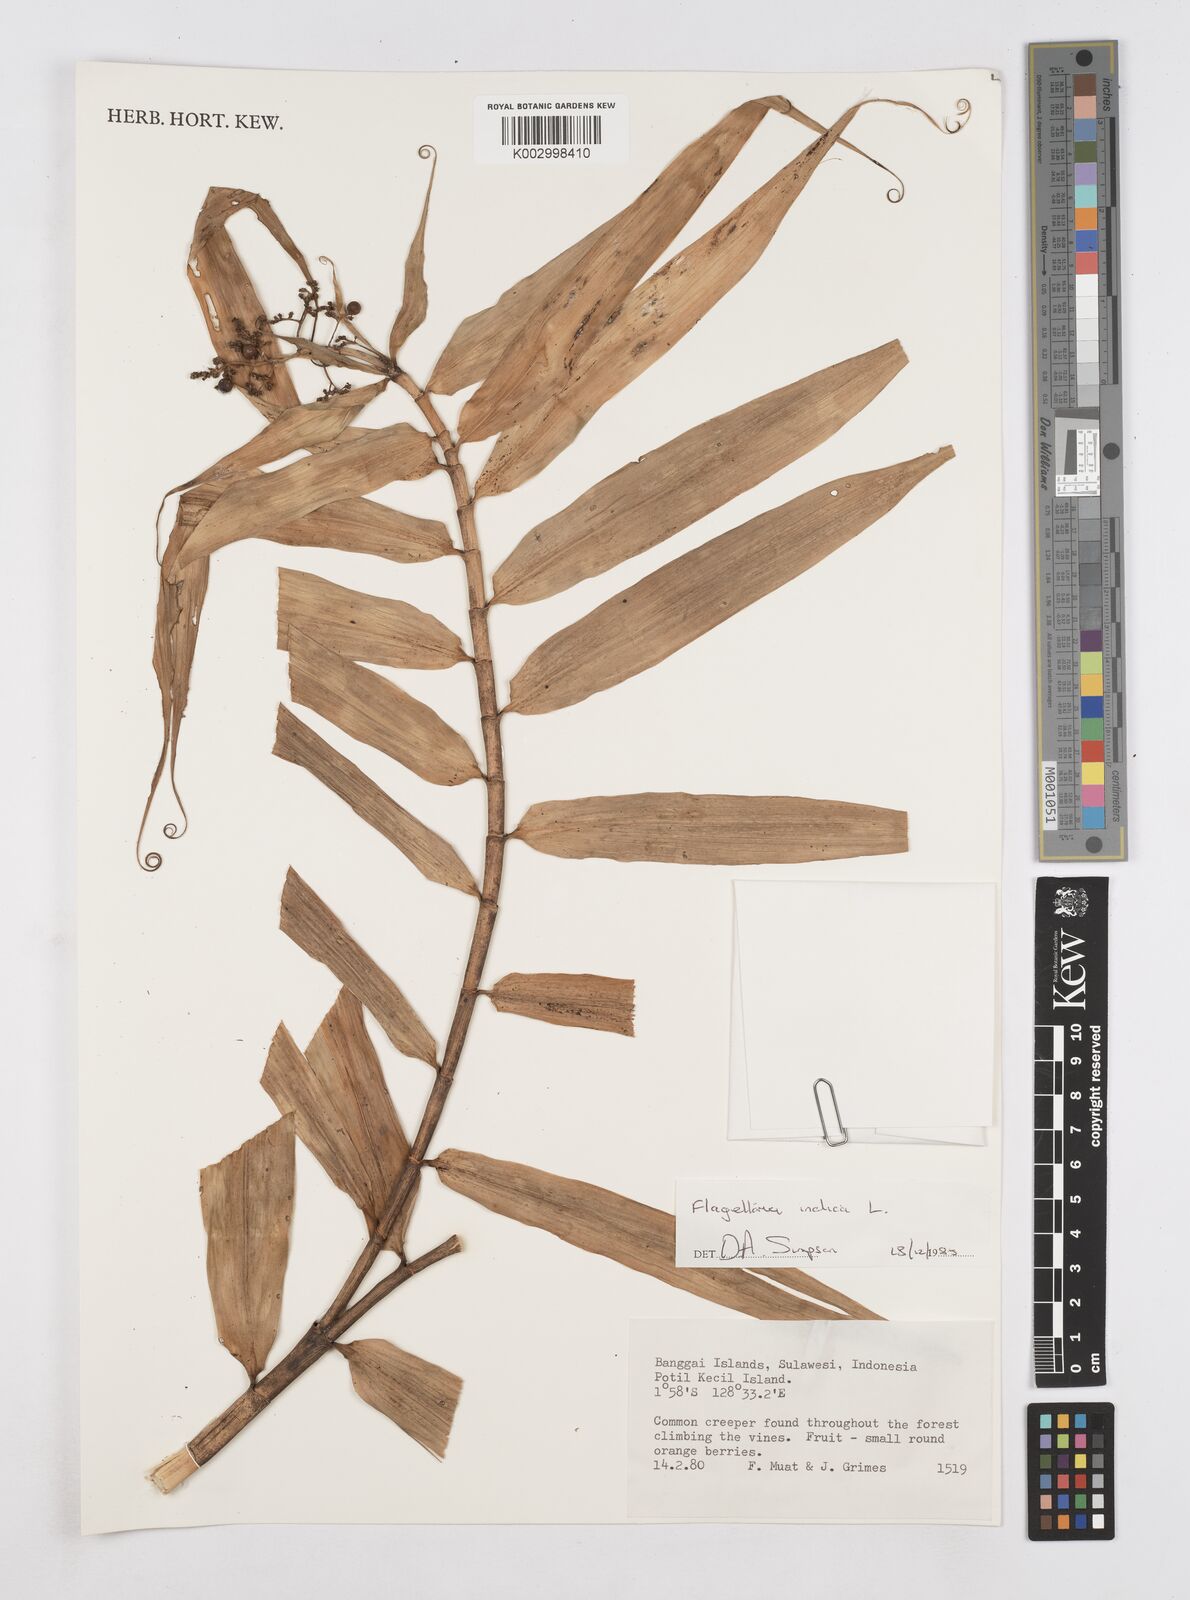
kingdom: Plantae
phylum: Tracheophyta
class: Liliopsida
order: Poales
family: Flagellariaceae
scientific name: Flagellariaceae
